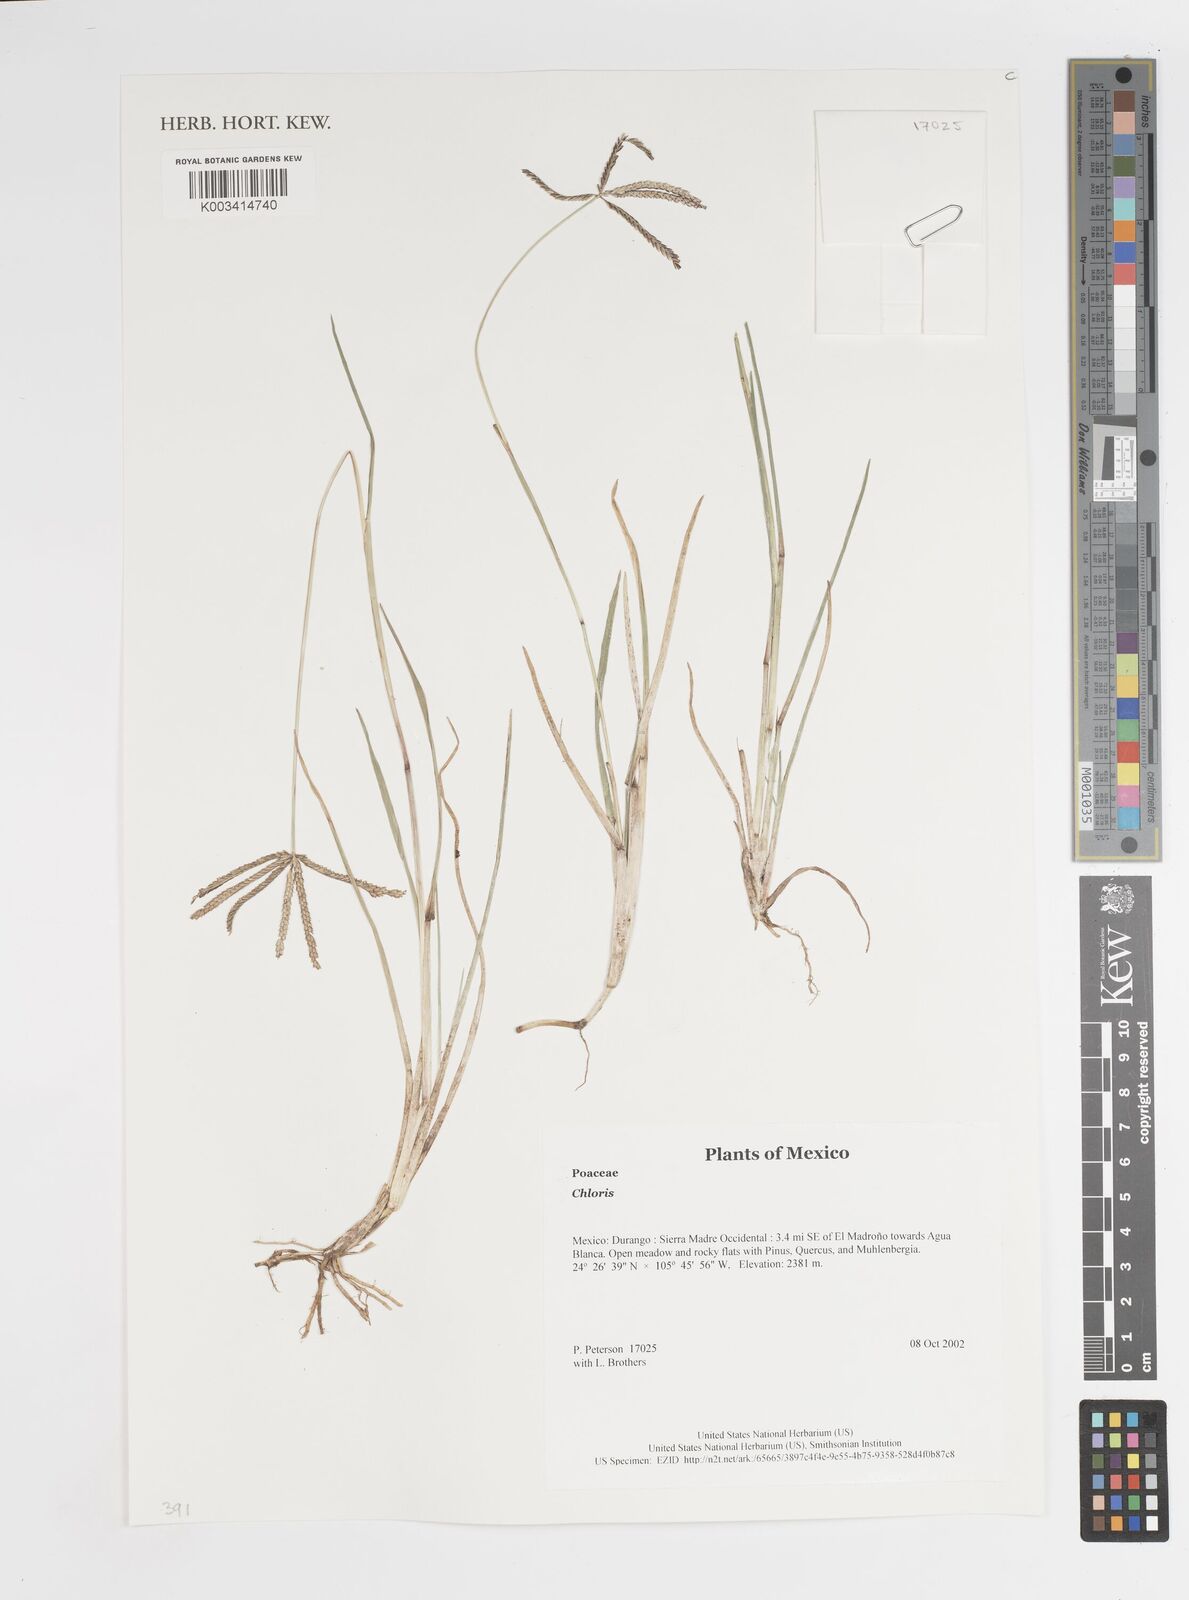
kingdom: Plantae
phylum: Tracheophyta
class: Liliopsida
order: Poales
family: Poaceae
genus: Chloris
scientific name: Chloris
